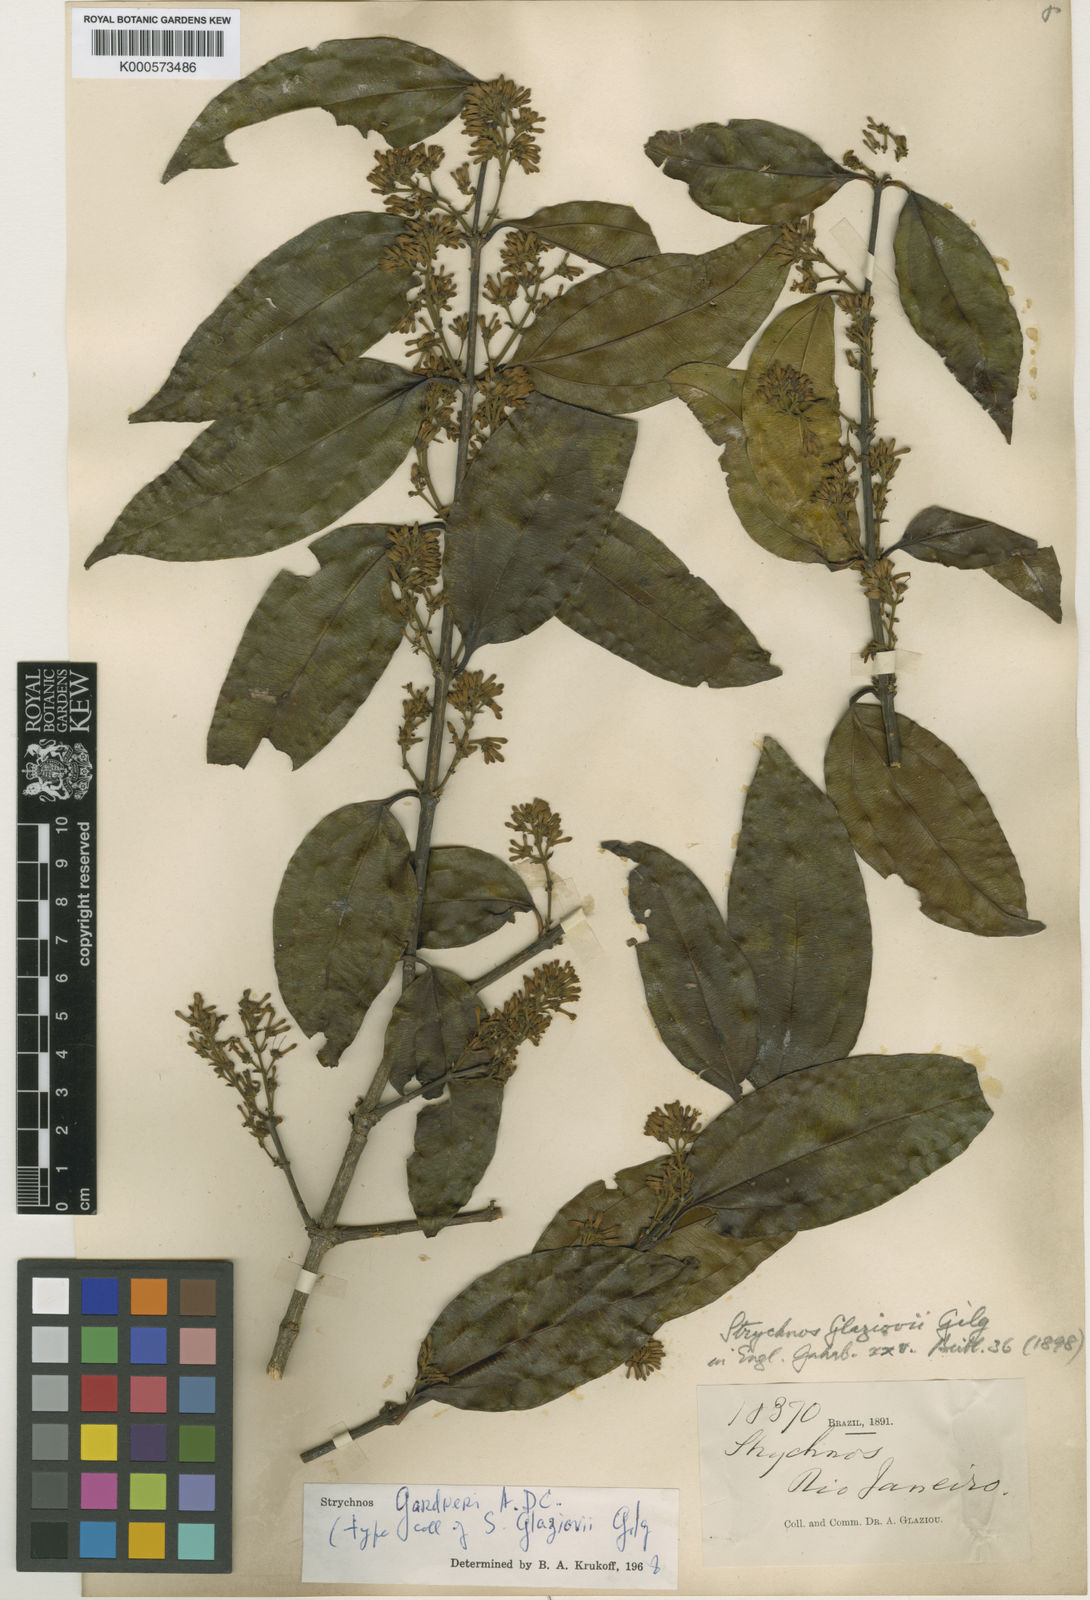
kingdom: Plantae
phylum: Tracheophyta
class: Magnoliopsida
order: Gentianales
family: Loganiaceae
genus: Strychnos
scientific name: Strychnos gardneri
